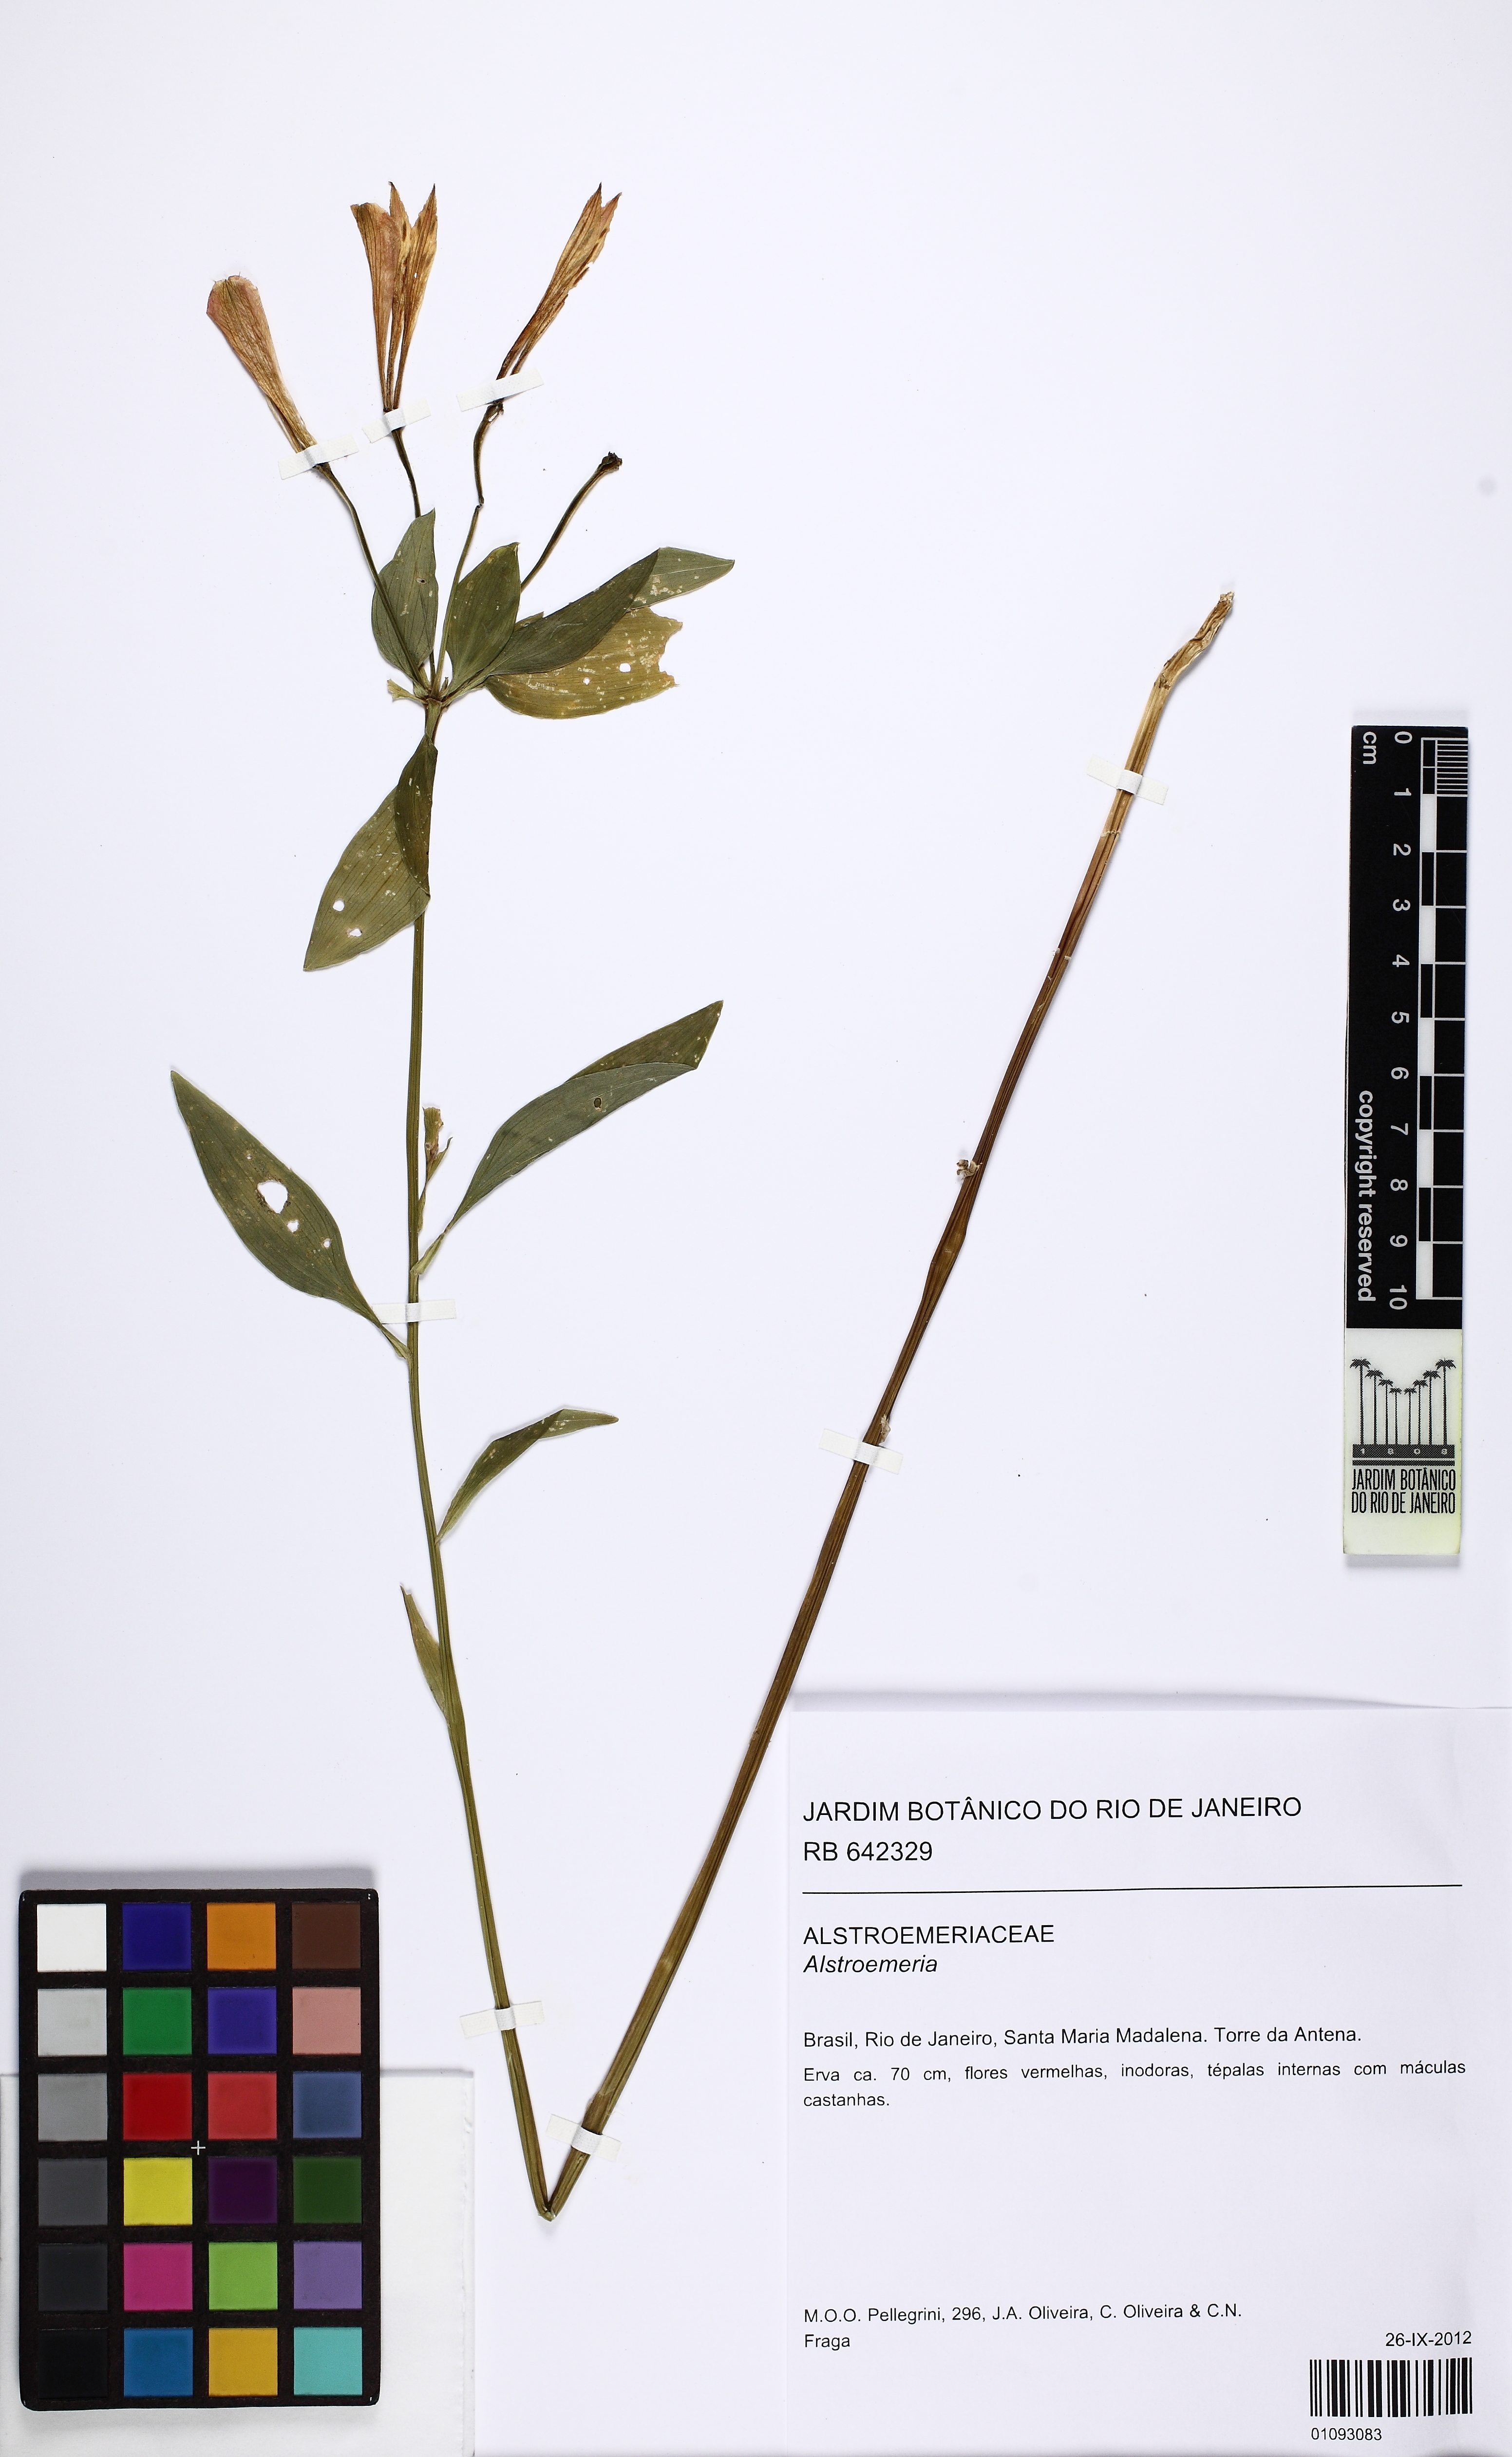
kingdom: Plantae
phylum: Tracheophyta
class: Liliopsida
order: Liliales
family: Alstroemeriaceae
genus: Alstroemeria
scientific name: Alstroemeria
